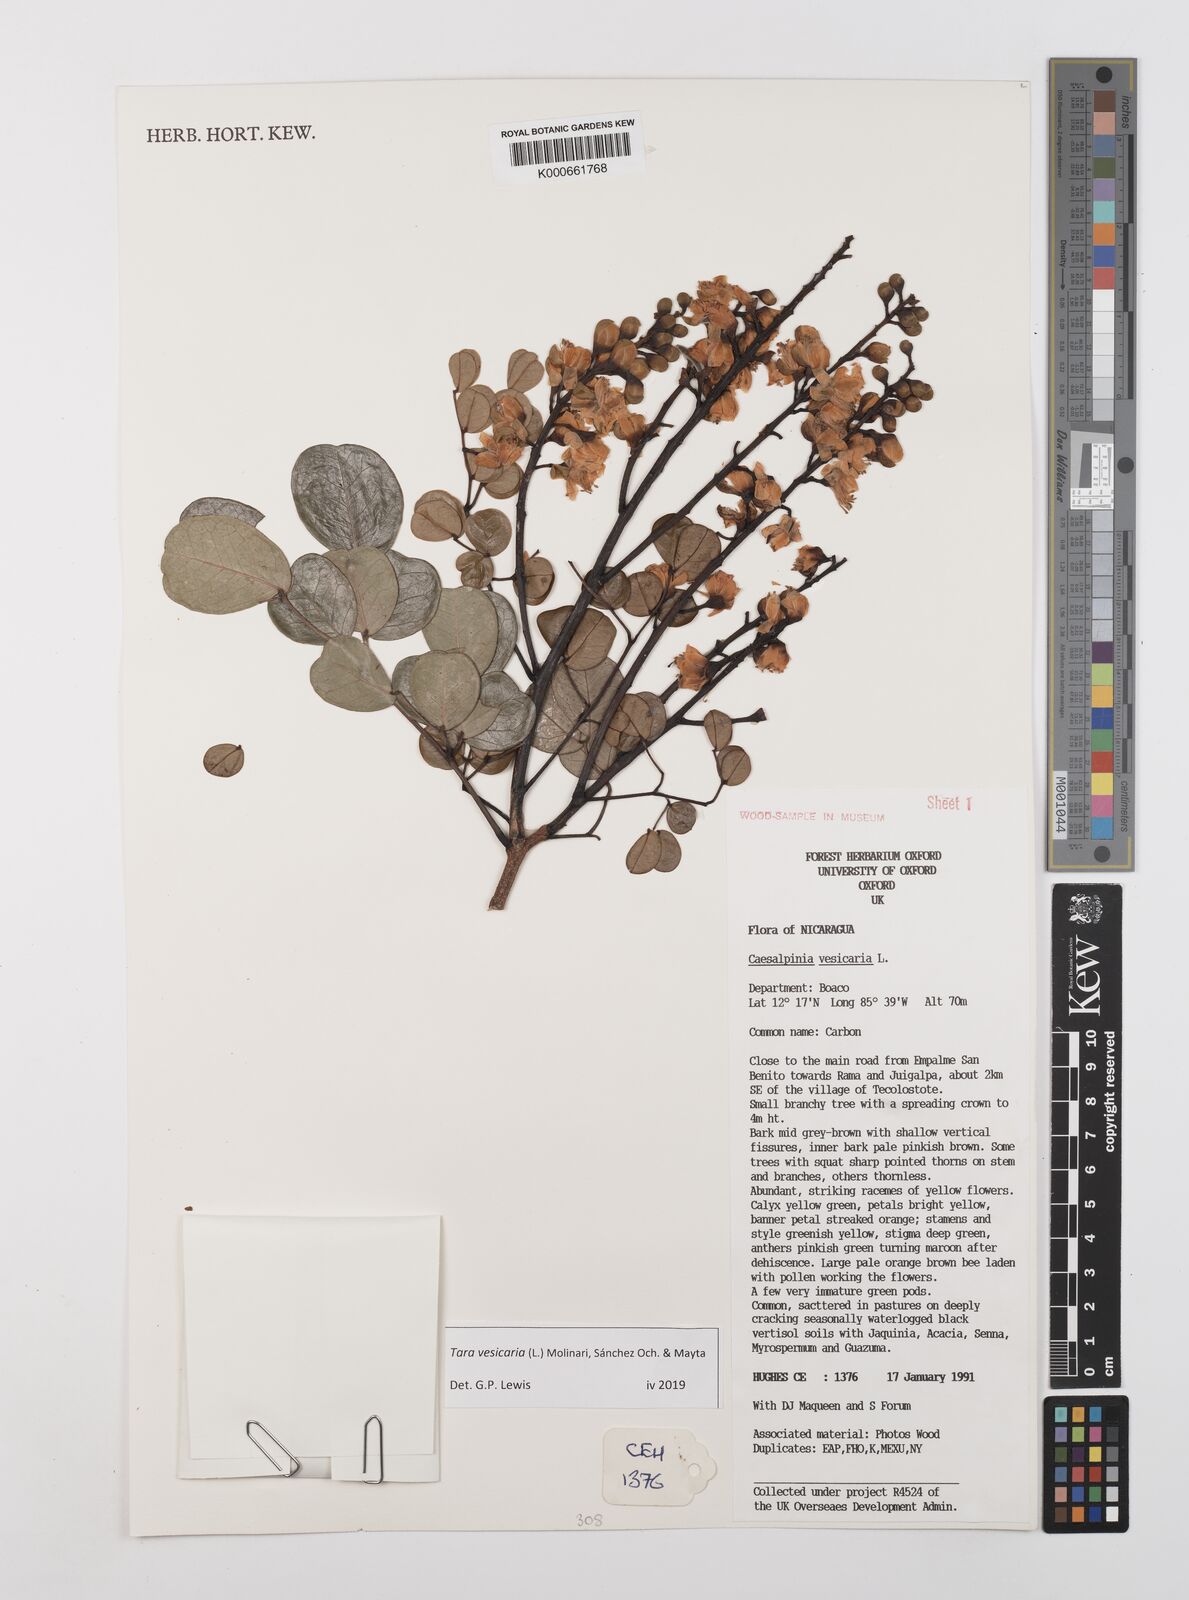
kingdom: Plantae
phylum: Tracheophyta
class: Magnoliopsida
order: Fabales
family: Fabaceae
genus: Tara
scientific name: Tara vesicaria
